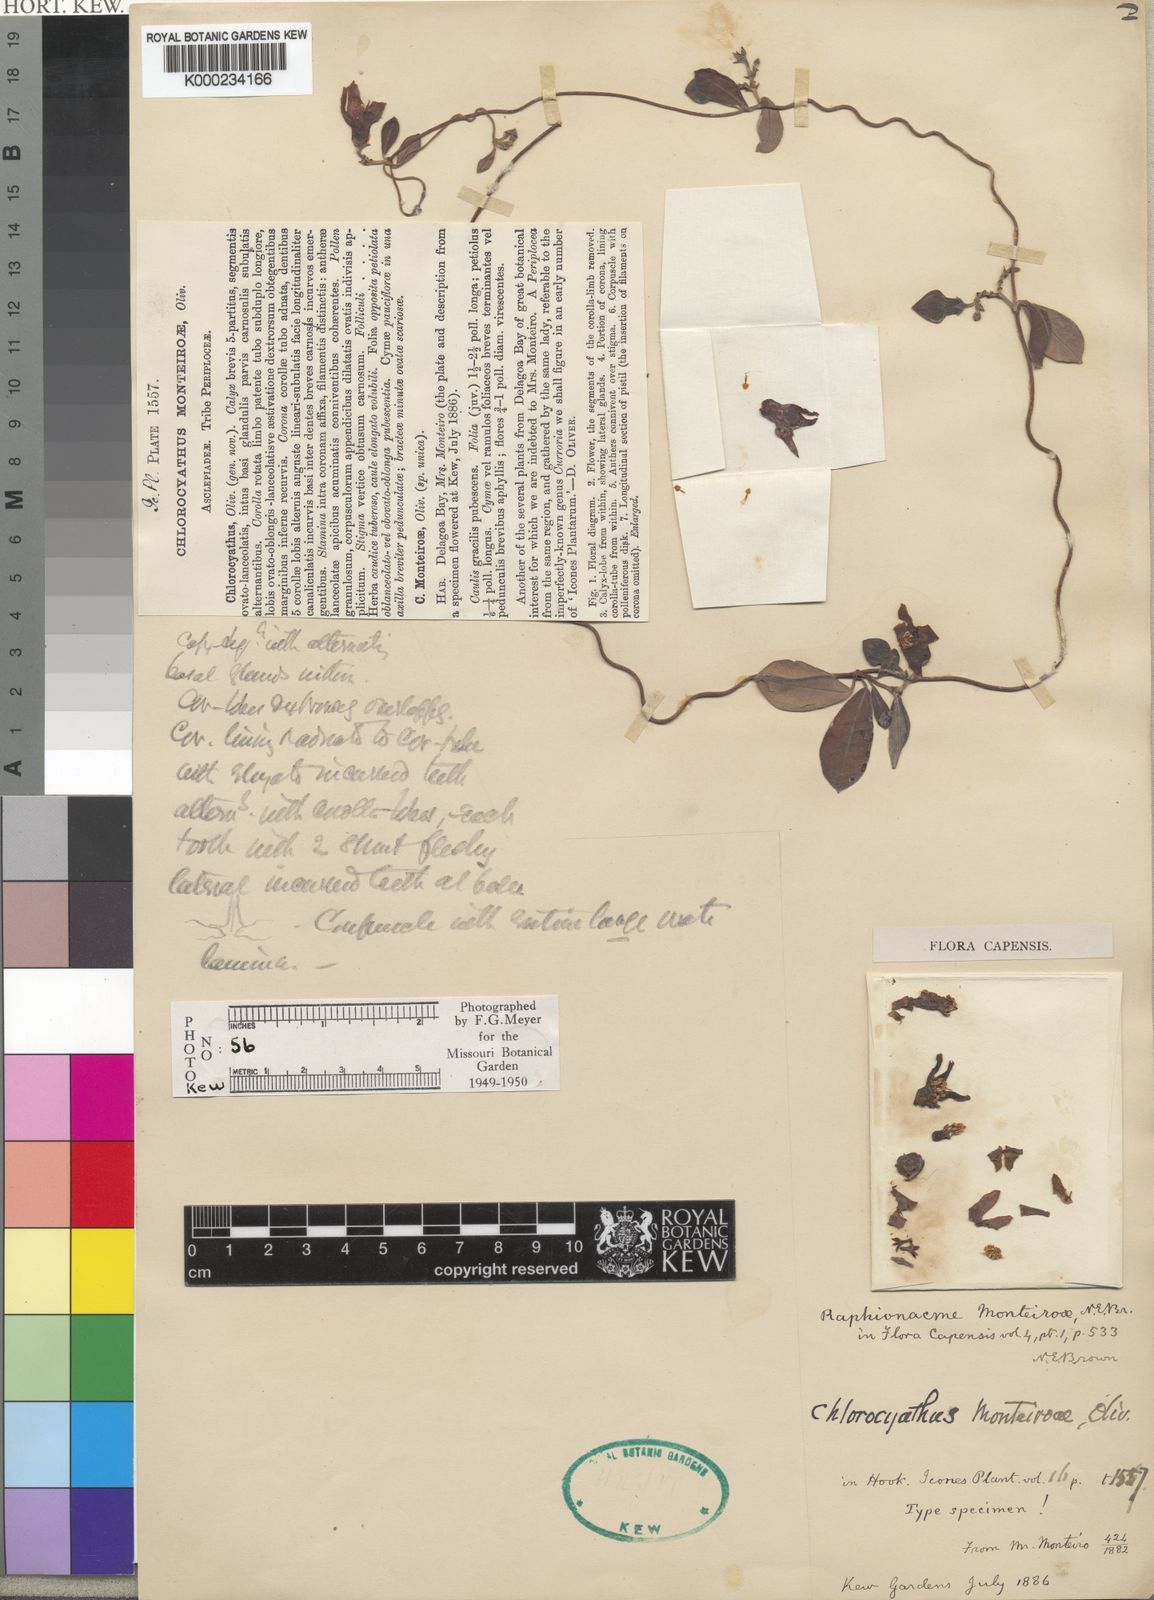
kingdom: Plantae
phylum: Tracheophyta
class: Magnoliopsida
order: Gentianales
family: Apocynaceae
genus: Chlorocyathus
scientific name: Chlorocyathus monteiroae
